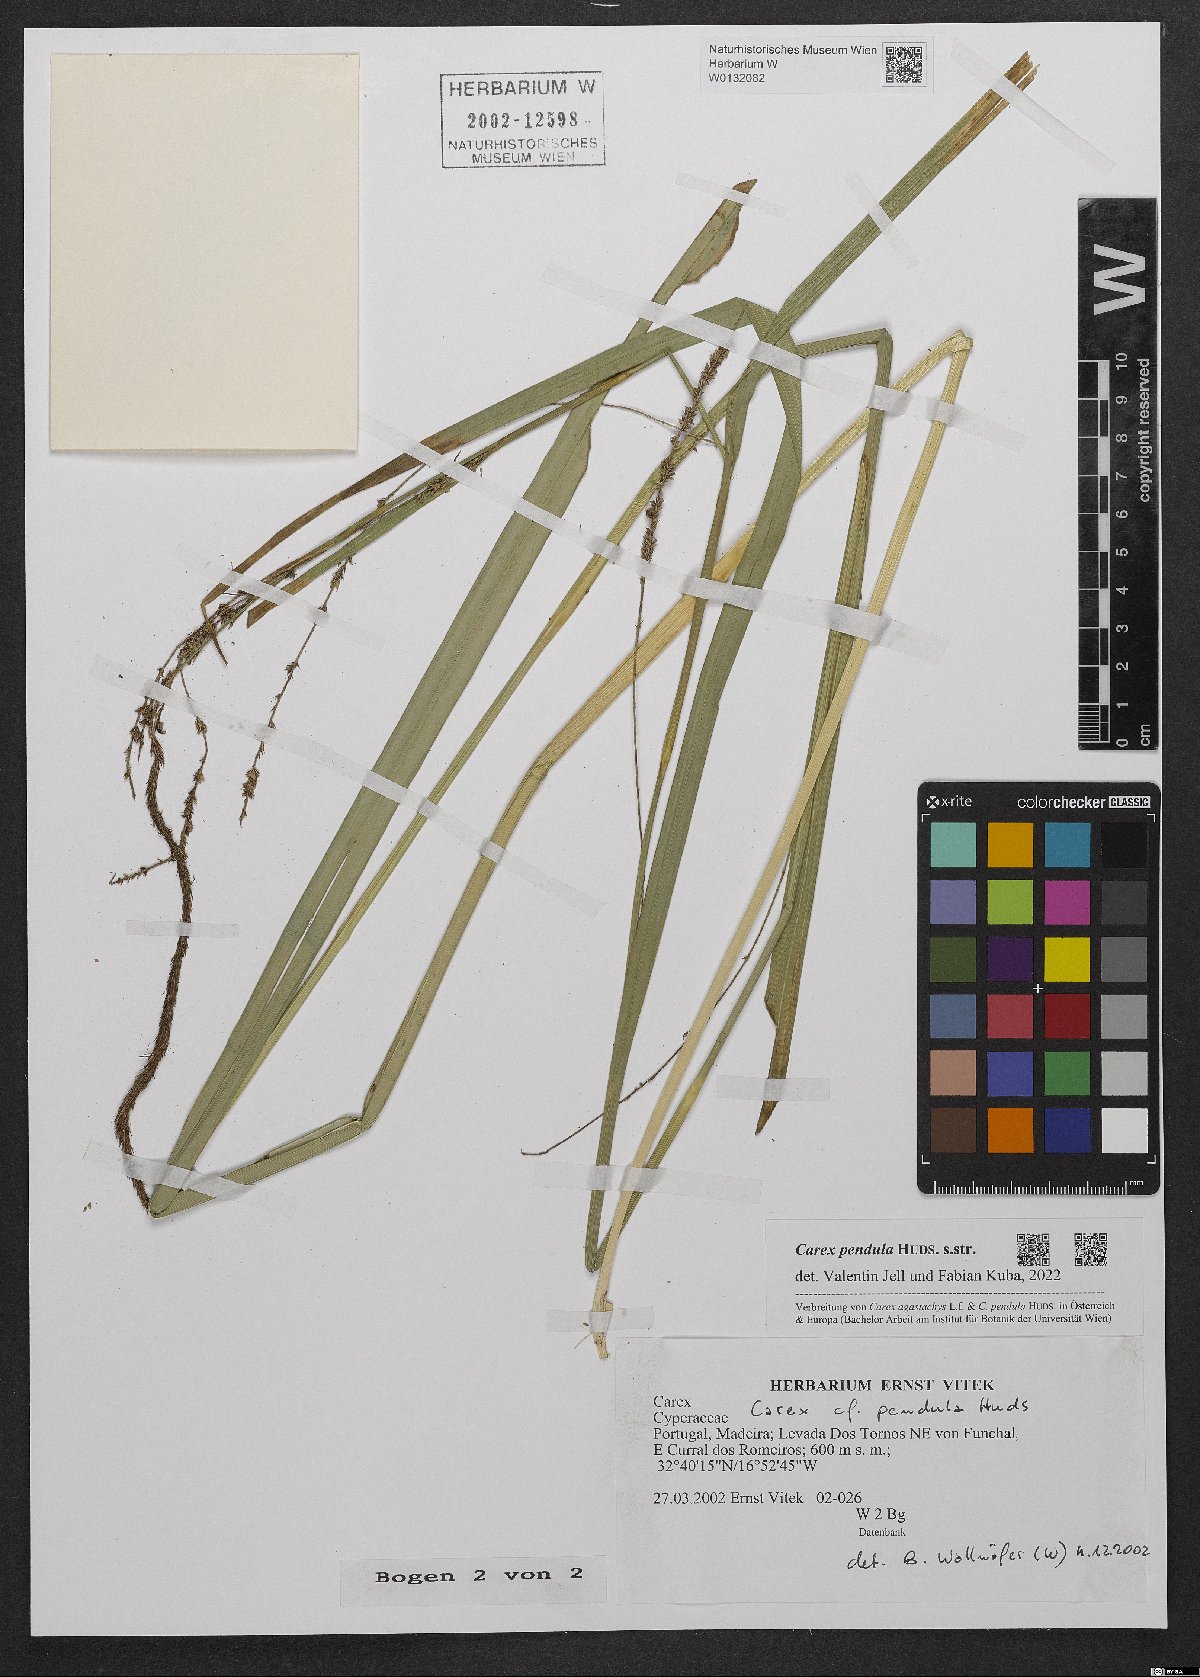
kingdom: Plantae
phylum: Tracheophyta
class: Liliopsida
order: Poales
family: Cyperaceae
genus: Carex
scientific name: Carex pendula
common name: Pendulous sedge
